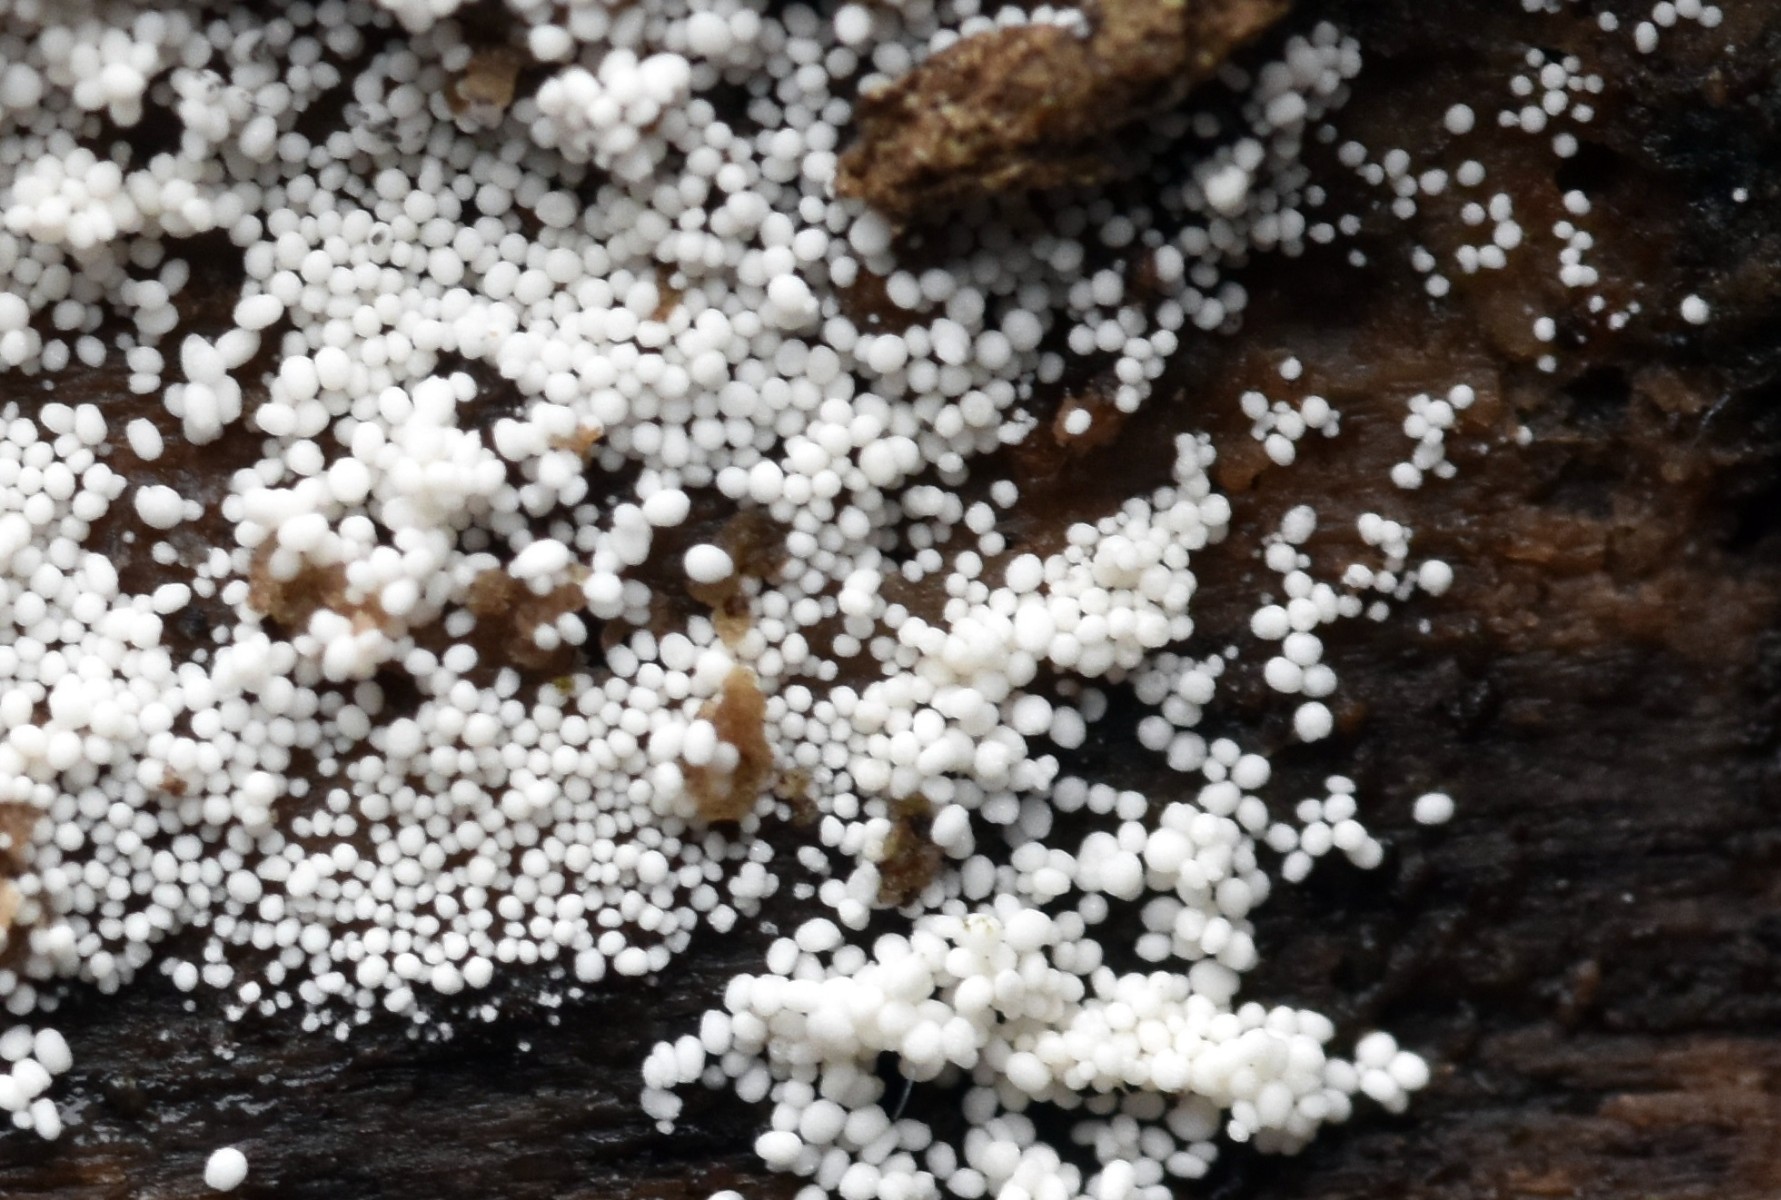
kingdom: Fungi
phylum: Basidiomycota
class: Agaricomycetes
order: Polyporales
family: Meruliaceae
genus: Bulbillomyces
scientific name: Bulbillomyces farinosus
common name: æg-kalkskind
